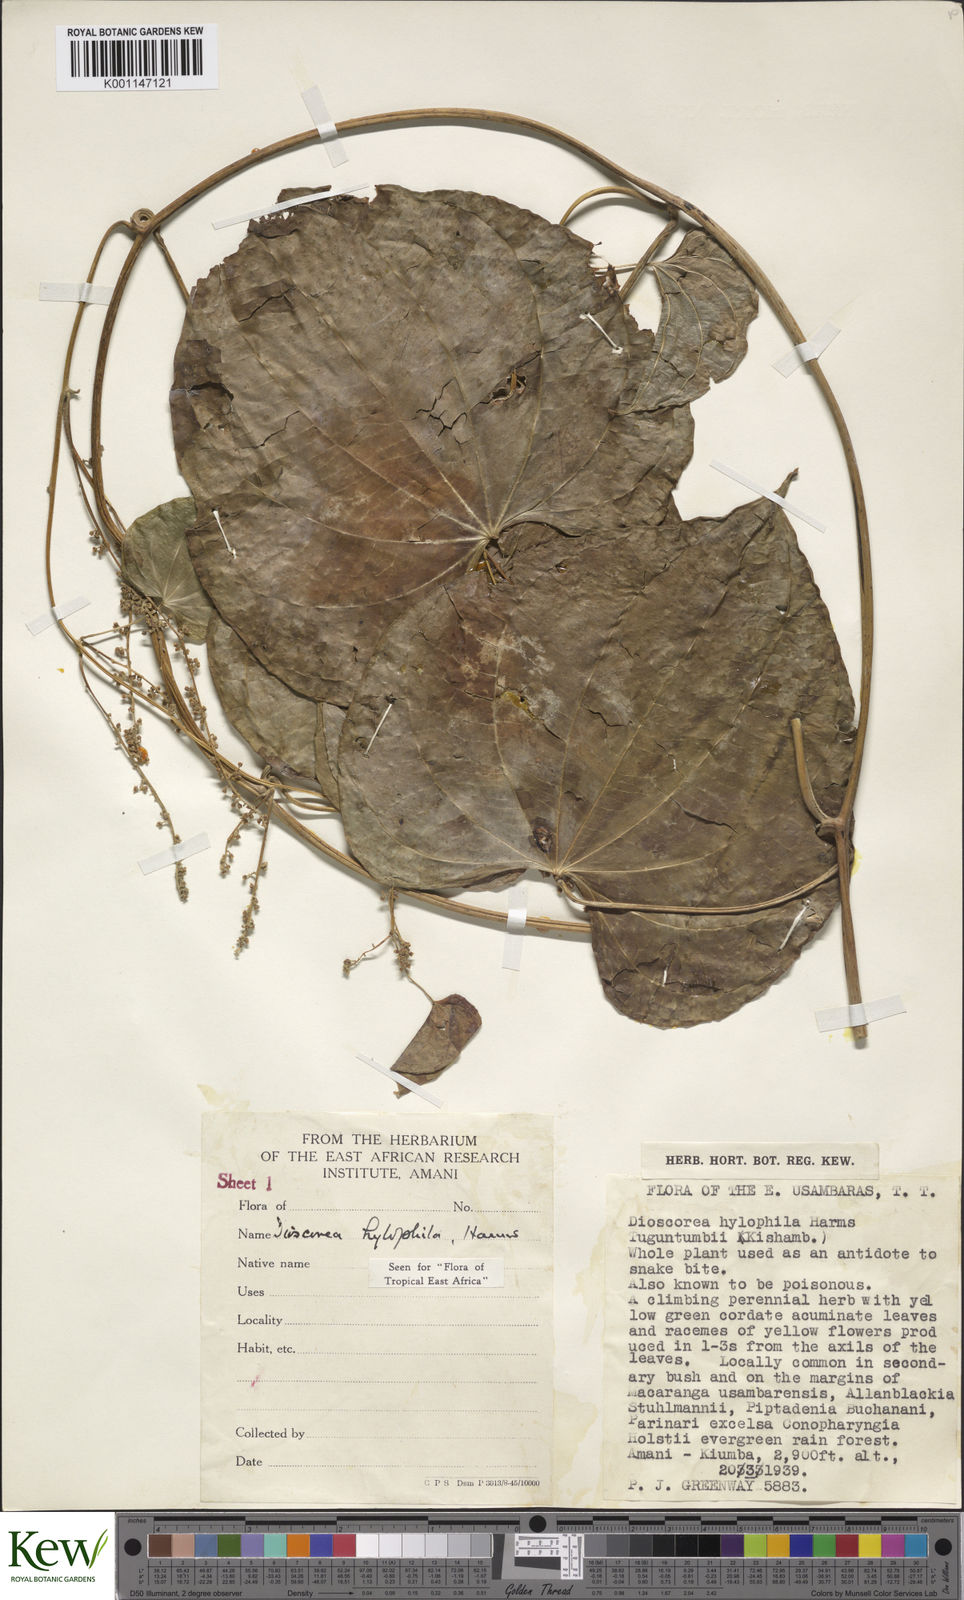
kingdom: Plantae
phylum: Tracheophyta
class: Liliopsida
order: Dioscoreales
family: Dioscoreaceae
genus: Dioscorea
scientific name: Dioscorea
